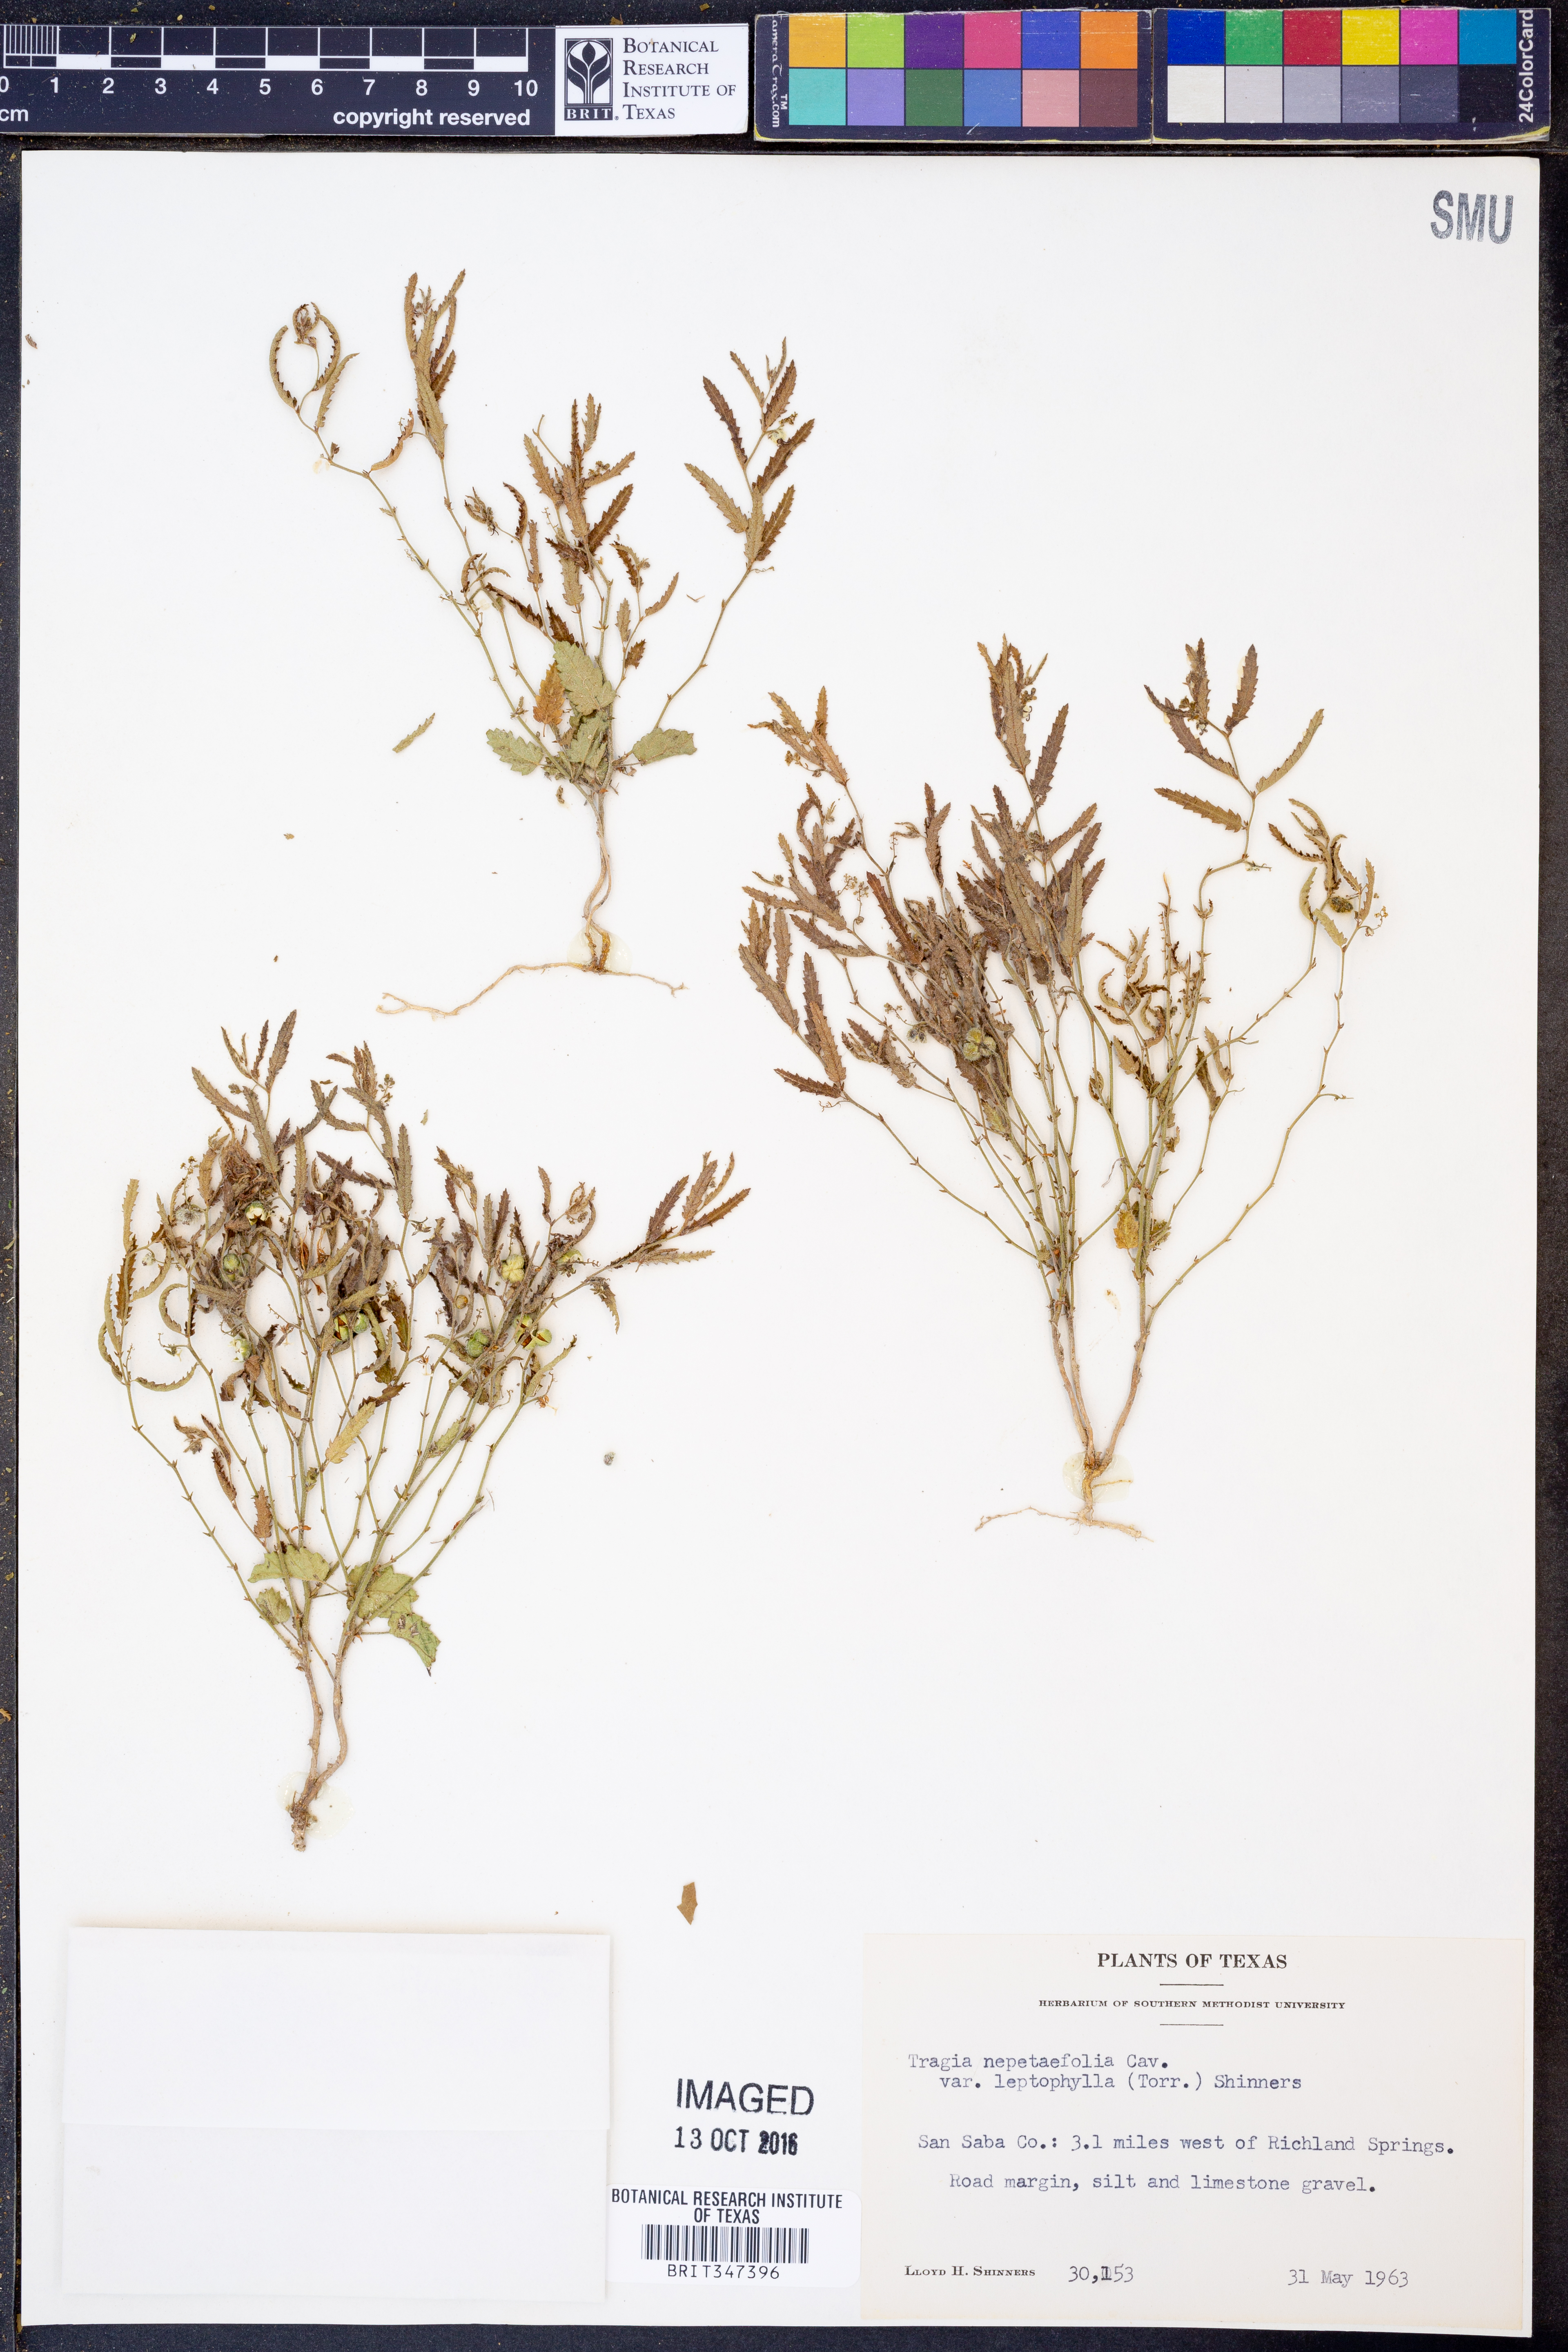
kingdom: Plantae
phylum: Tracheophyta
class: Magnoliopsida
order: Malpighiales
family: Euphorbiaceae
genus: Tragia
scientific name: Tragia leptophylla
